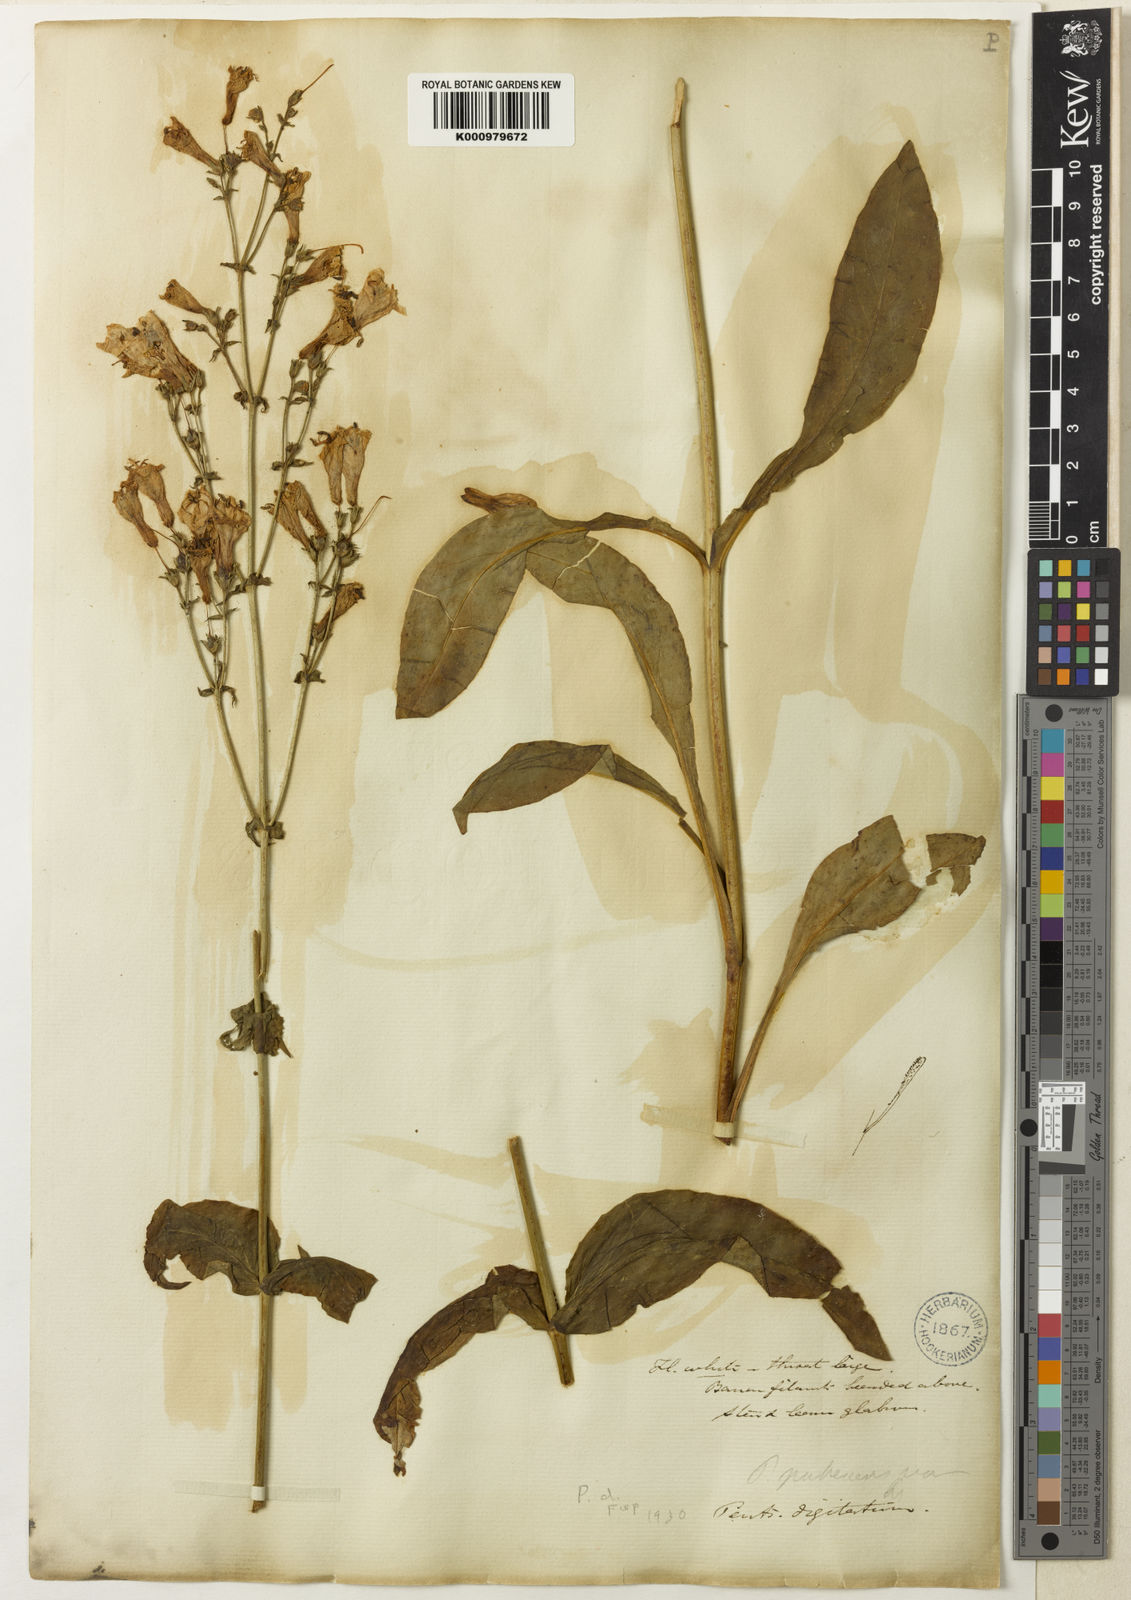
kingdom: Plantae
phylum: Tracheophyta
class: Magnoliopsida
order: Lamiales
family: Plantaginaceae
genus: Penstemon
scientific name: Penstemon digitalis
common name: Foxglove beardtongue
